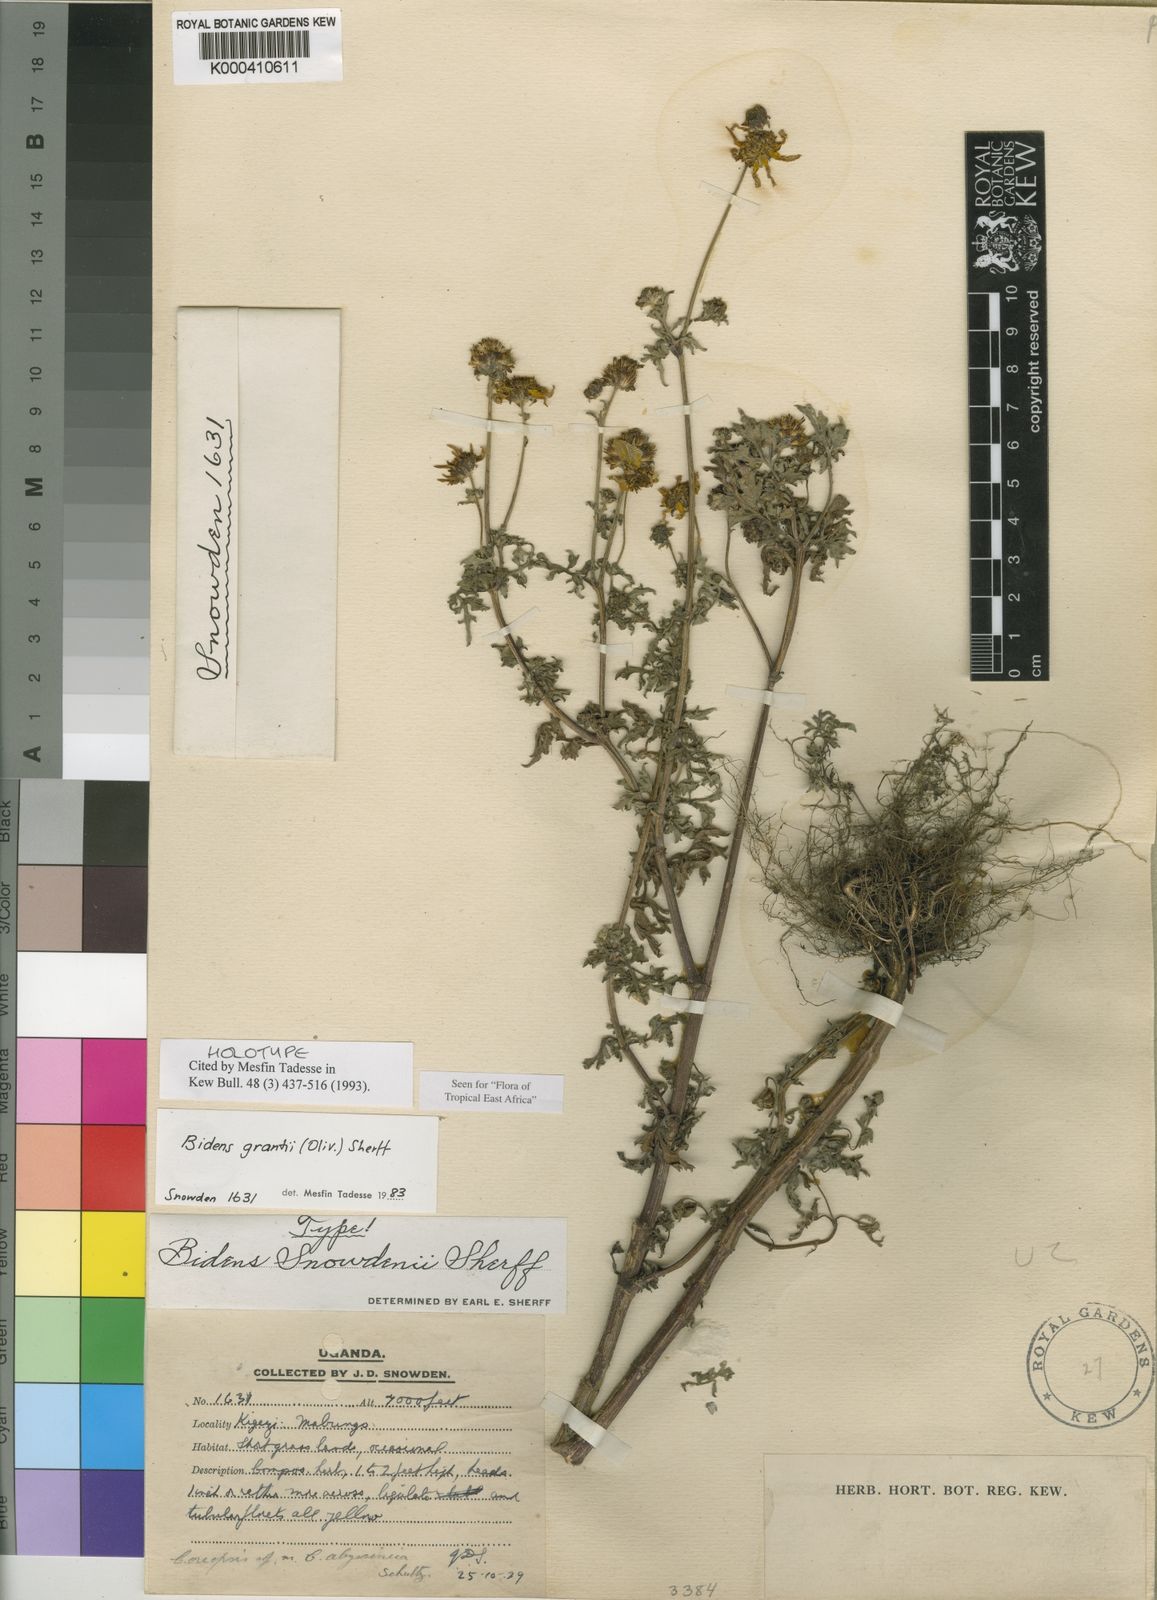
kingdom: Plantae
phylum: Tracheophyta
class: Magnoliopsida
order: Asterales
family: Asteraceae
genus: Bidens
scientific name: Bidens grantii
